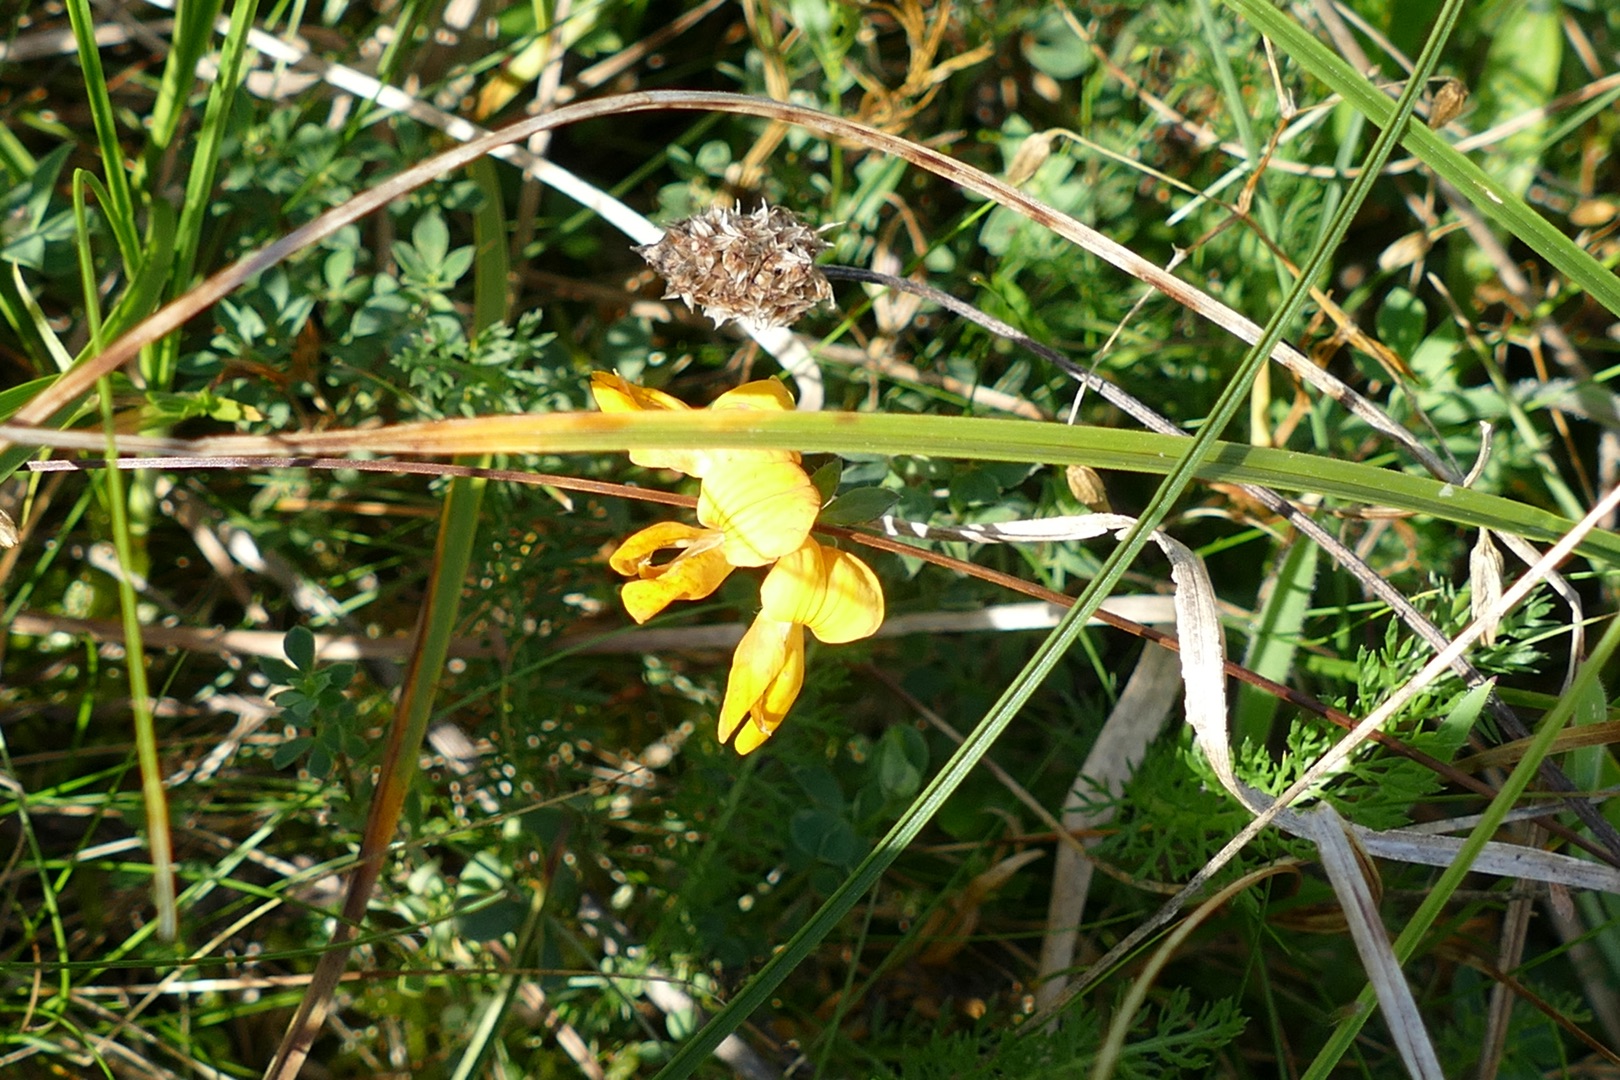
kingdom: Plantae
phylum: Tracheophyta
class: Magnoliopsida
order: Fabales
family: Fabaceae
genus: Lotus
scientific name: Lotus corniculatus
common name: Almindelig kællingetand
